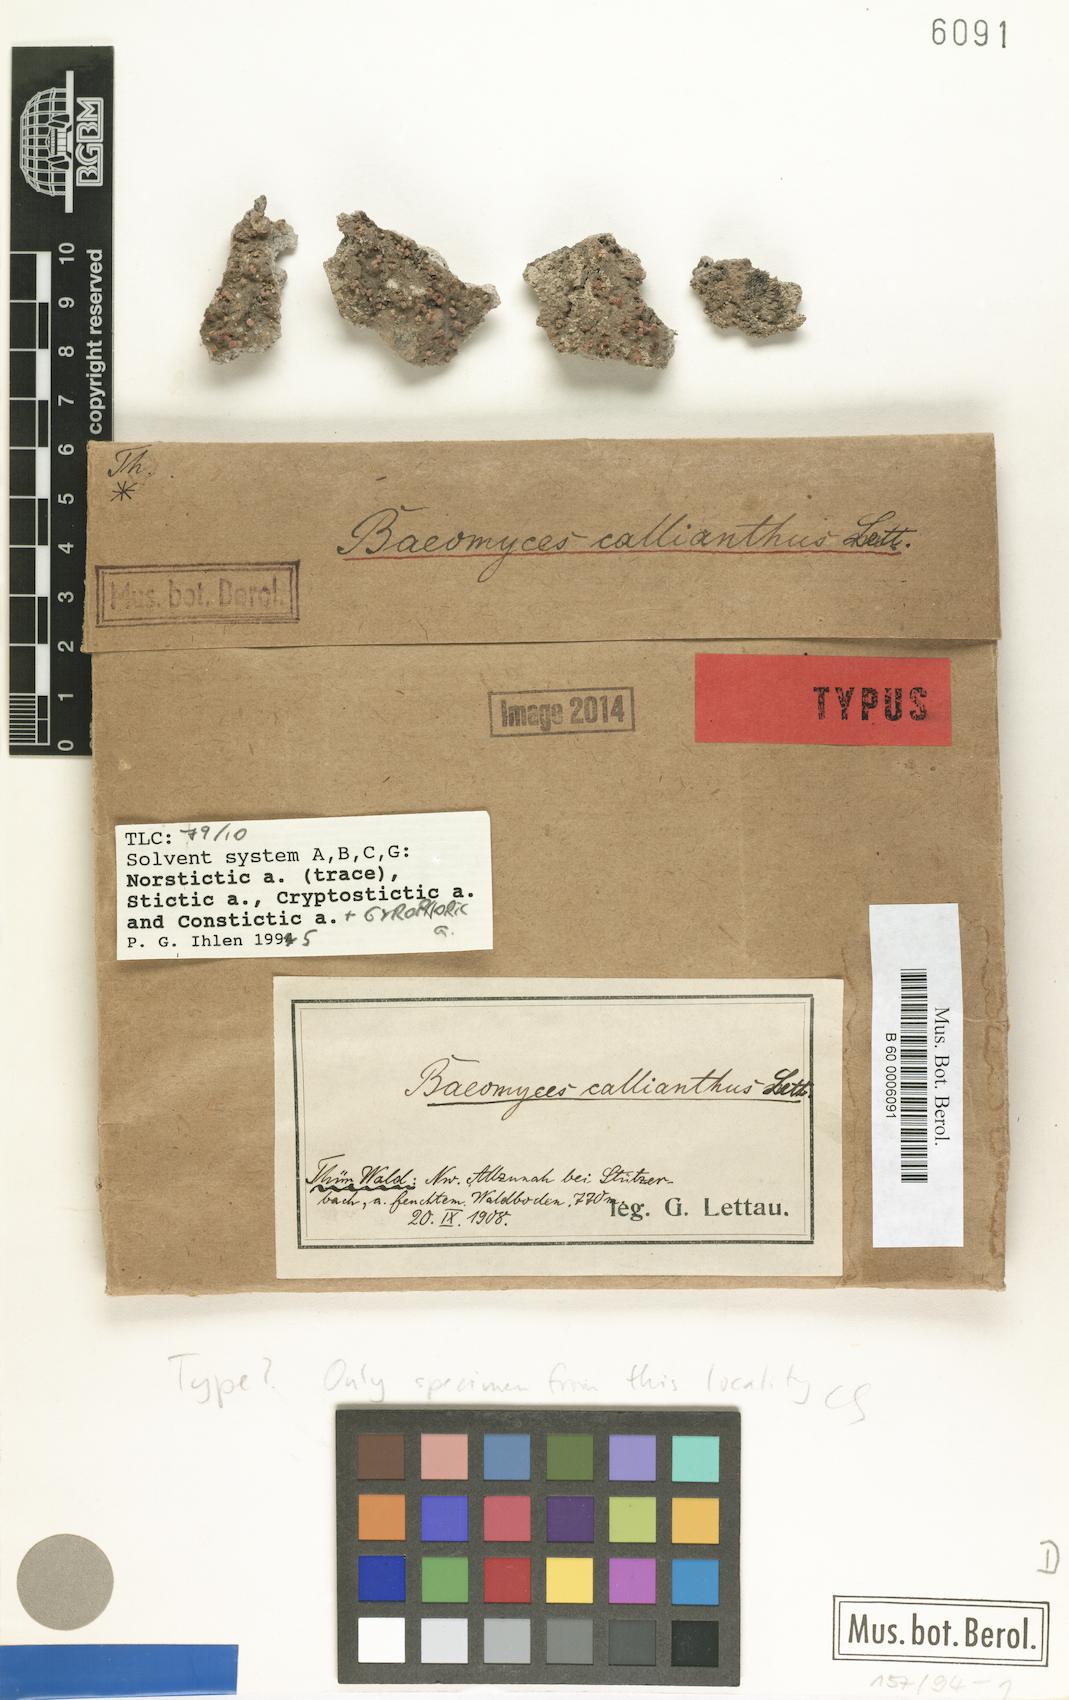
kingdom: Fungi
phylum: Ascomycota
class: Lecanoromycetes
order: Baeomycetales
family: Baeomycetaceae
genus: Baeomyces
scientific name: Baeomyces rufus
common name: Brown beret lichen
